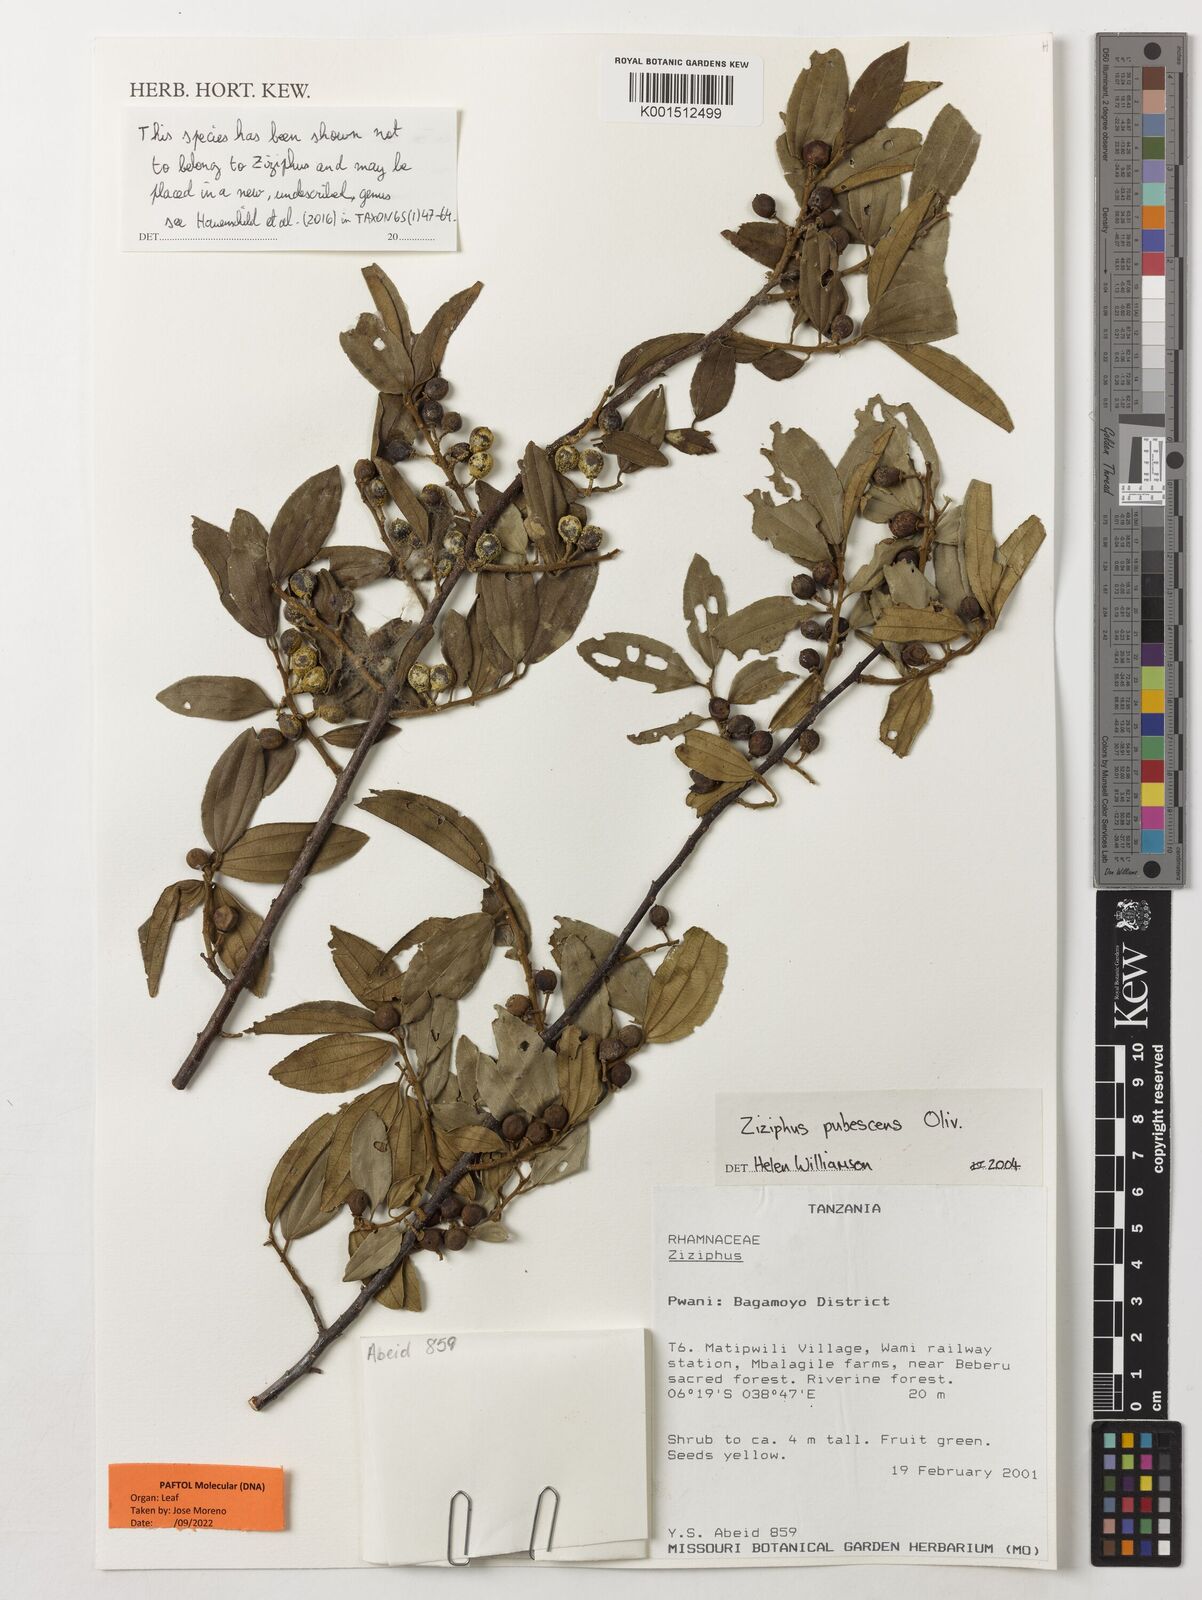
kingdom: Plantae
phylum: Tracheophyta
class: Magnoliopsida
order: Rosales
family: Rhamnaceae
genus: Ziziphus
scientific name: Ziziphus pubescens
